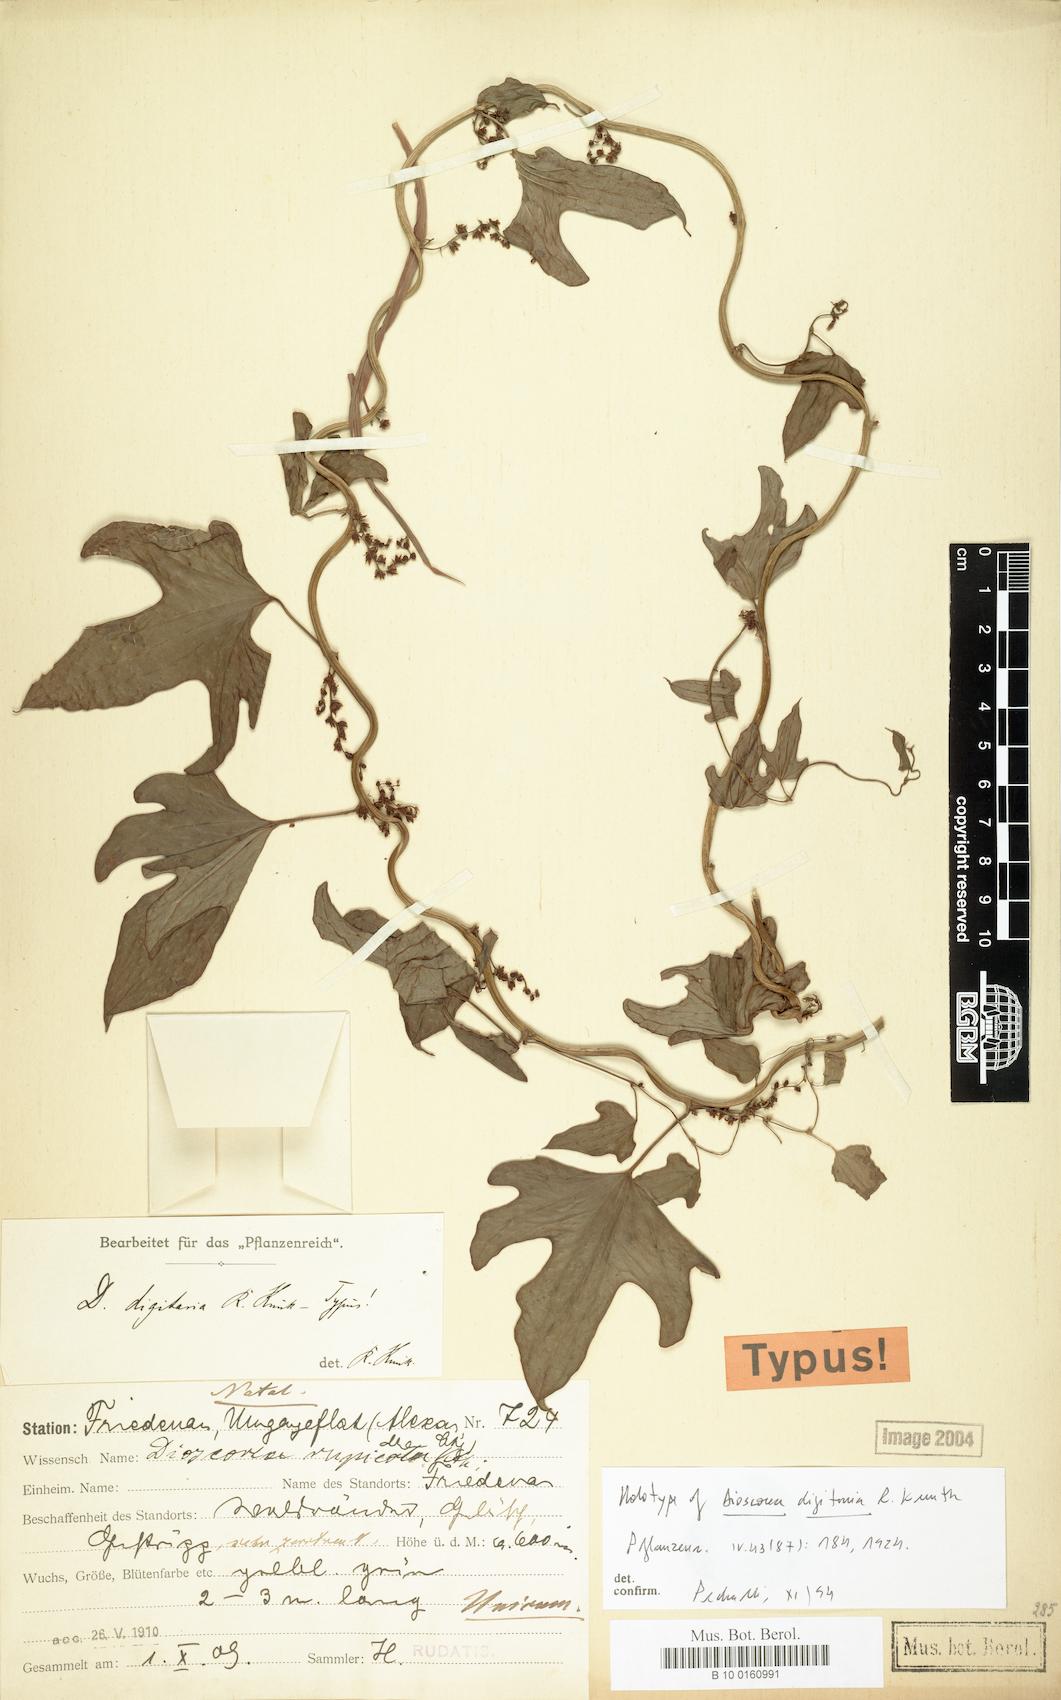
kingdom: Plantae
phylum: Tracheophyta
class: Liliopsida
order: Dioscoreales
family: Dioscoreaceae
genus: Dioscorea
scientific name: Dioscorea multiloba
